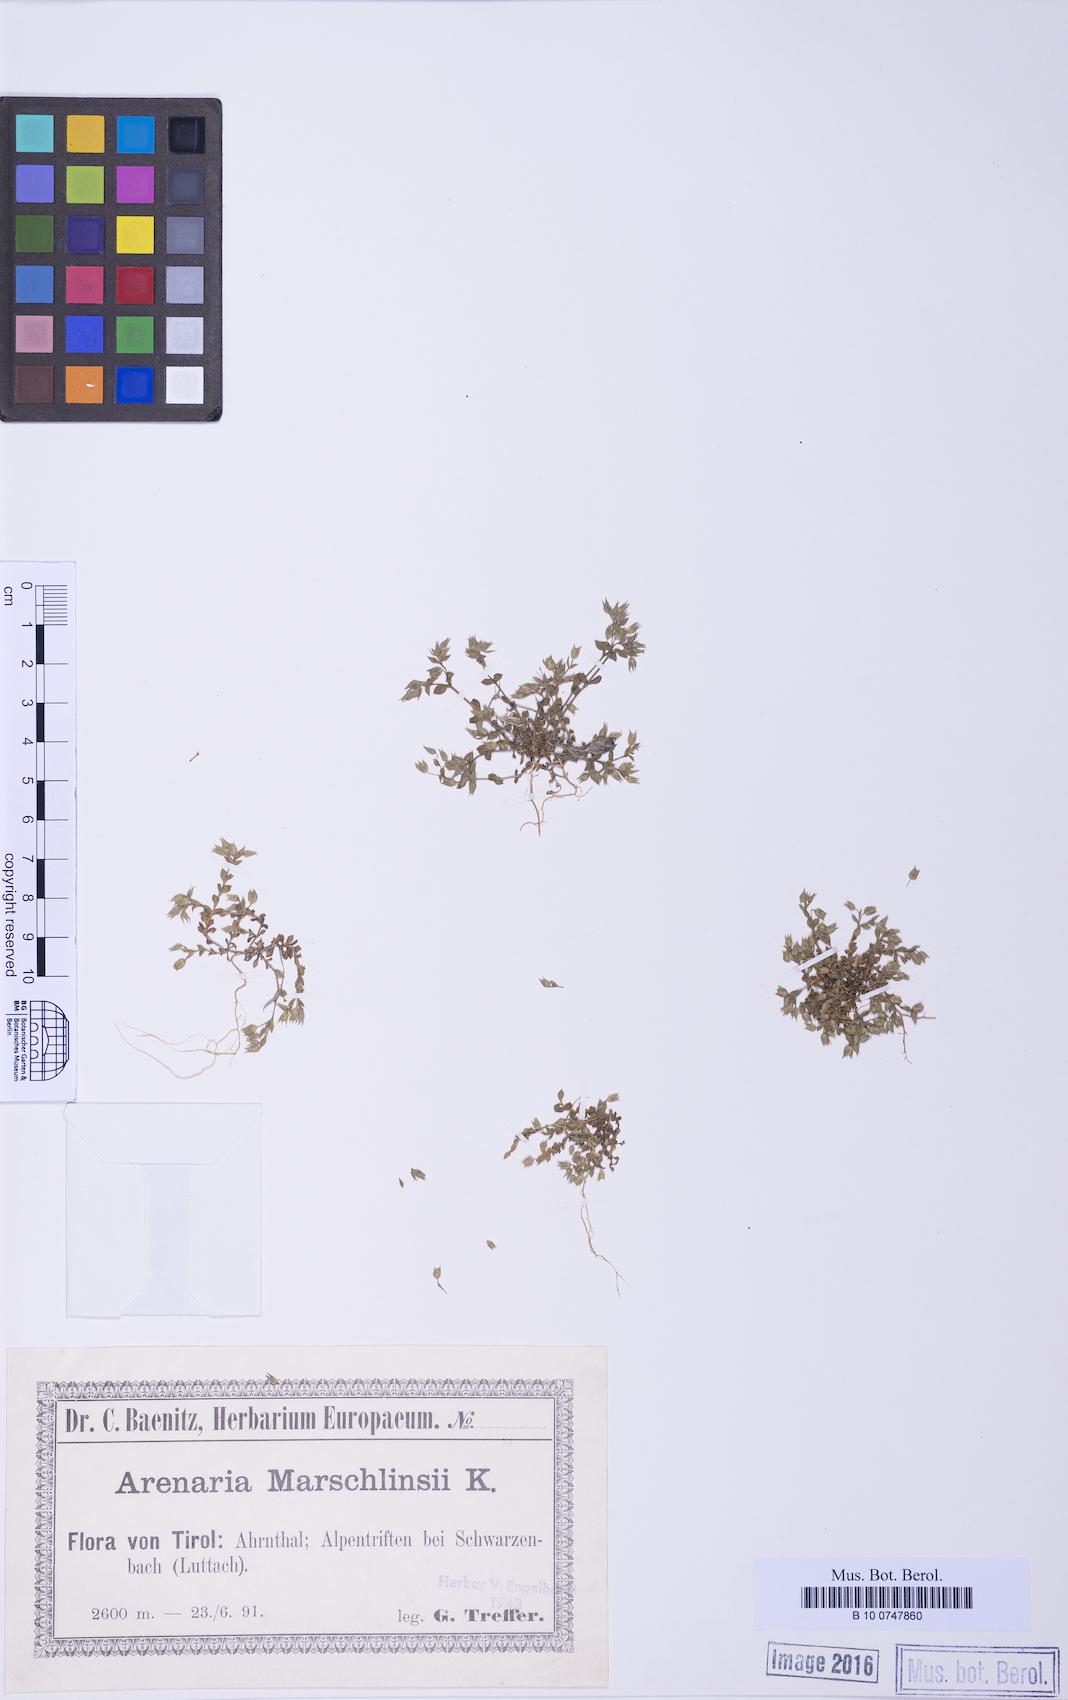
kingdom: Plantae
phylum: Tracheophyta
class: Magnoliopsida
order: Caryophyllales
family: Caryophyllaceae
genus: Arenaria
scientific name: Arenaria marschlinsii
